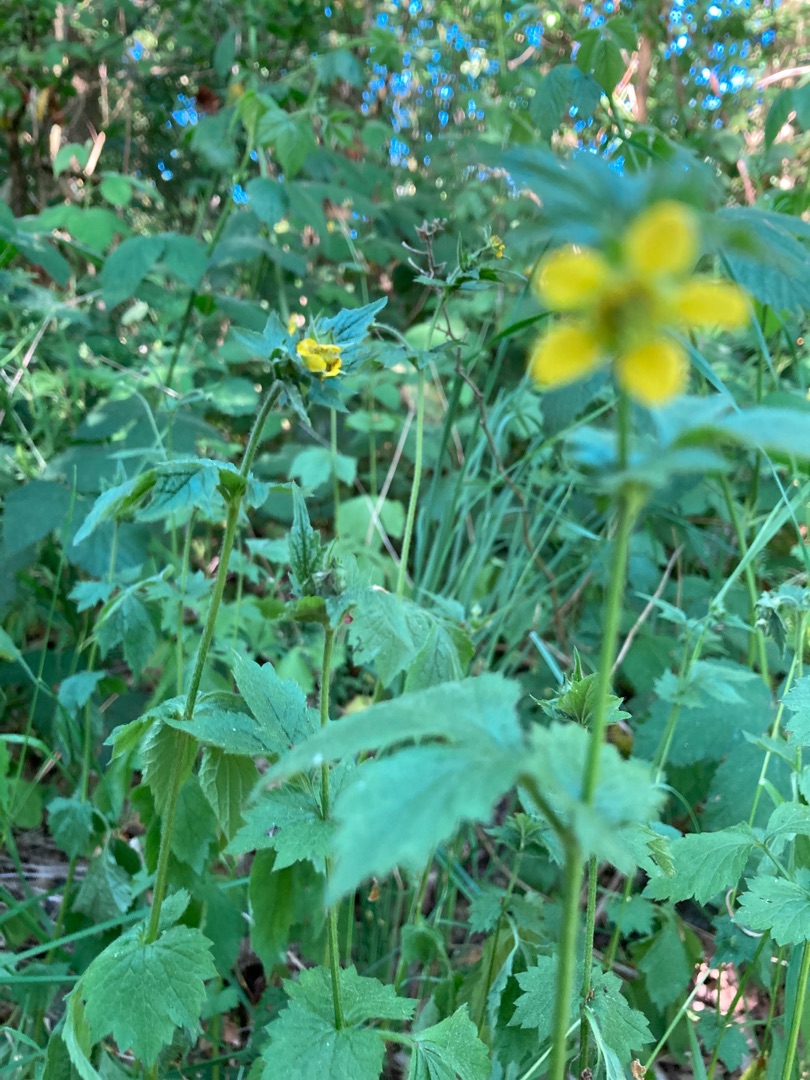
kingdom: Plantae
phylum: Tracheophyta
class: Magnoliopsida
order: Rosales
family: Rosaceae
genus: Geum
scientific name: Geum urbanum
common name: Feber-nellikerod
